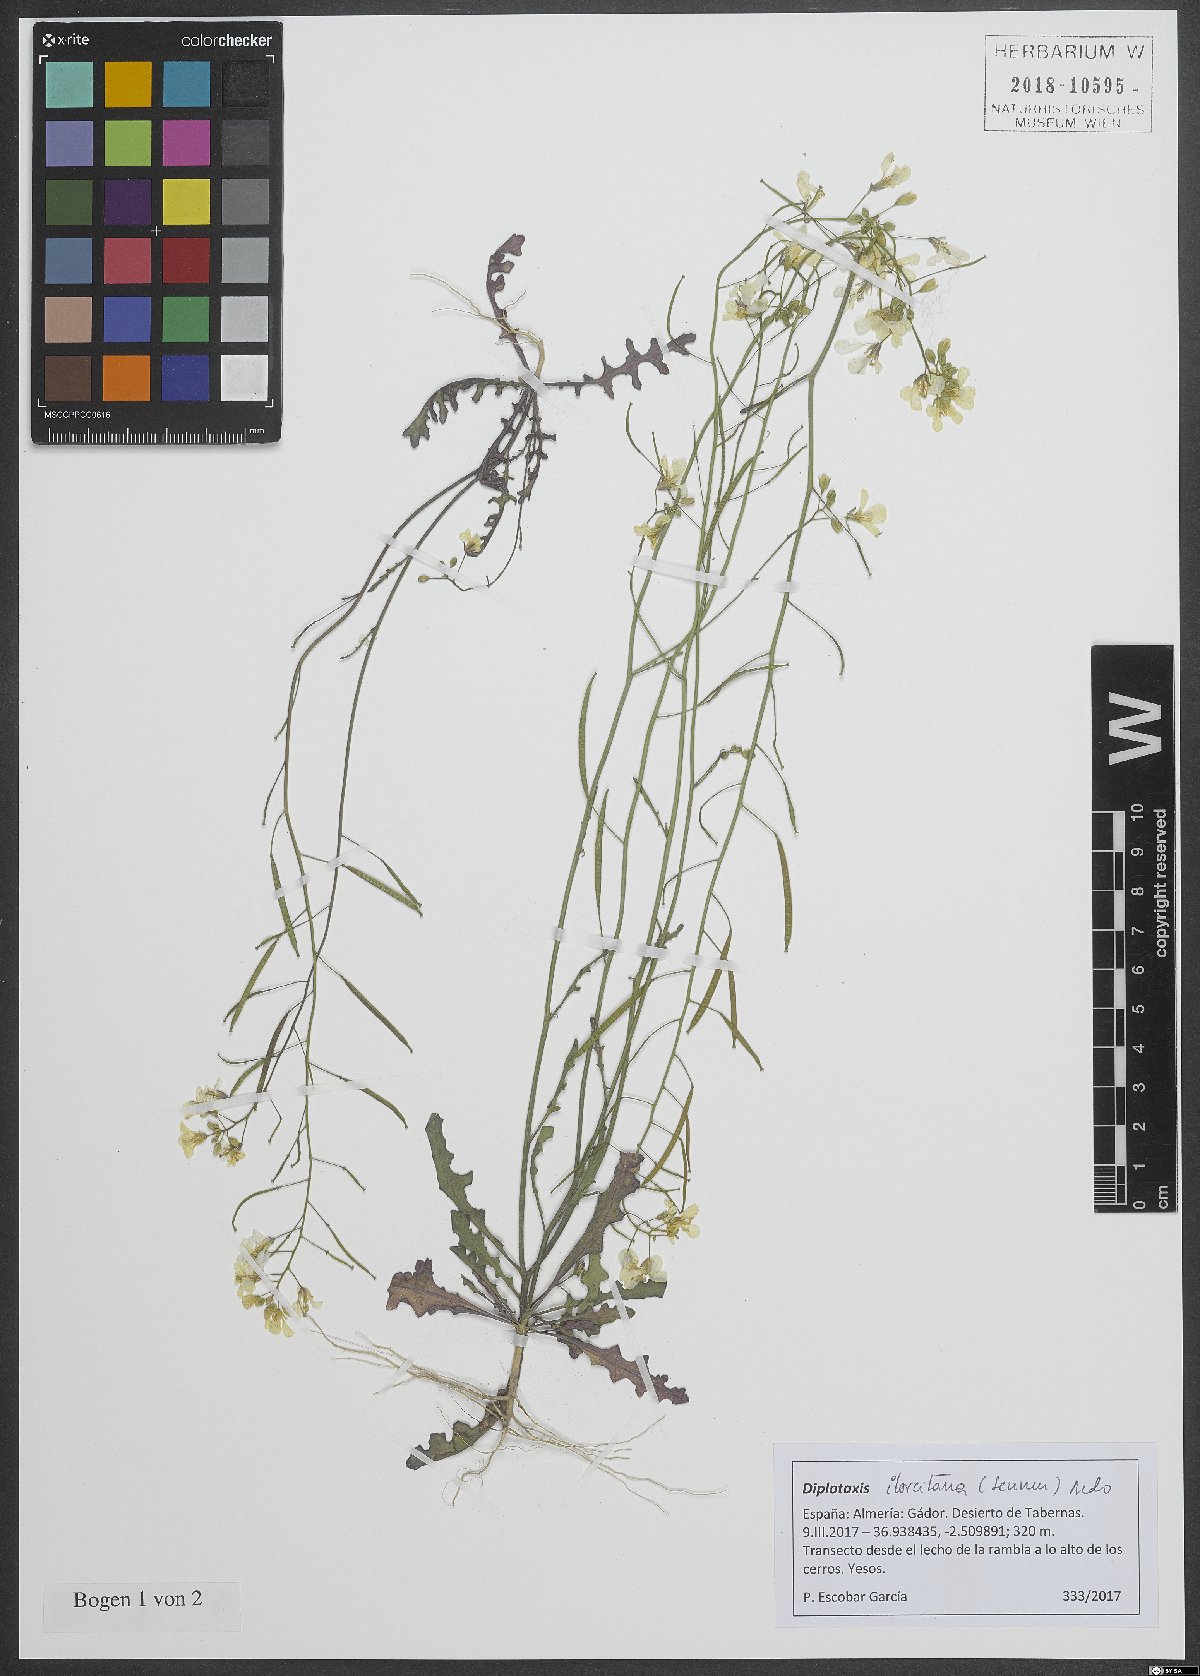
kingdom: Plantae
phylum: Tracheophyta
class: Magnoliopsida
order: Brassicales
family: Brassicaceae
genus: Diplotaxis
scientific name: Diplotaxis ilorcitana
